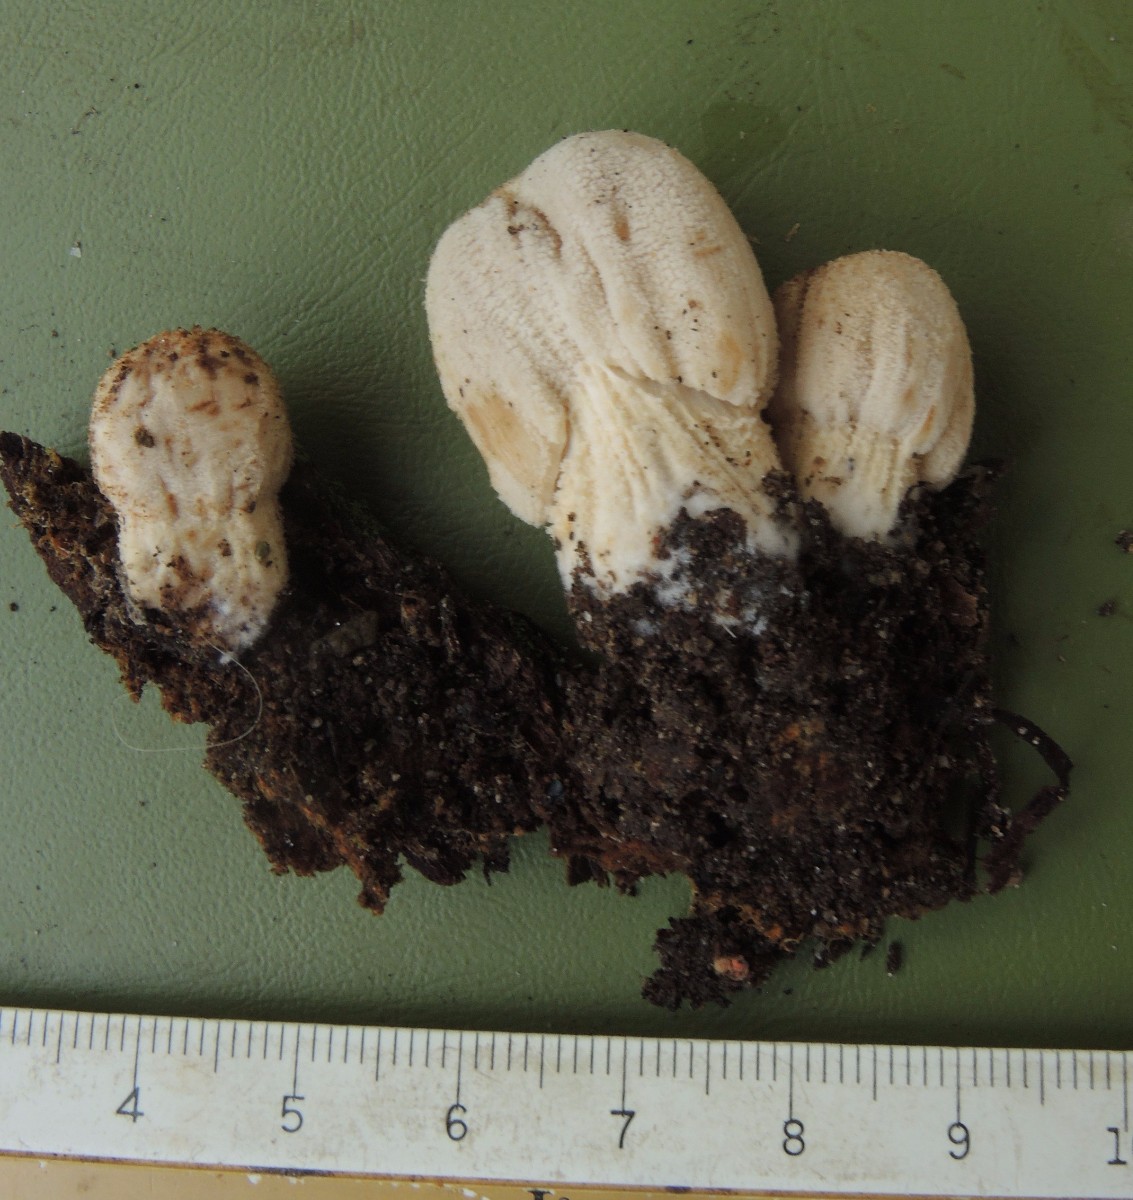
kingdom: Fungi
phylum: Basidiomycota
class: Agaricomycetes
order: Agaricales
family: Psathyrellaceae
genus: Coprinellus
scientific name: Coprinellus domesticus
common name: hus-blækhat
